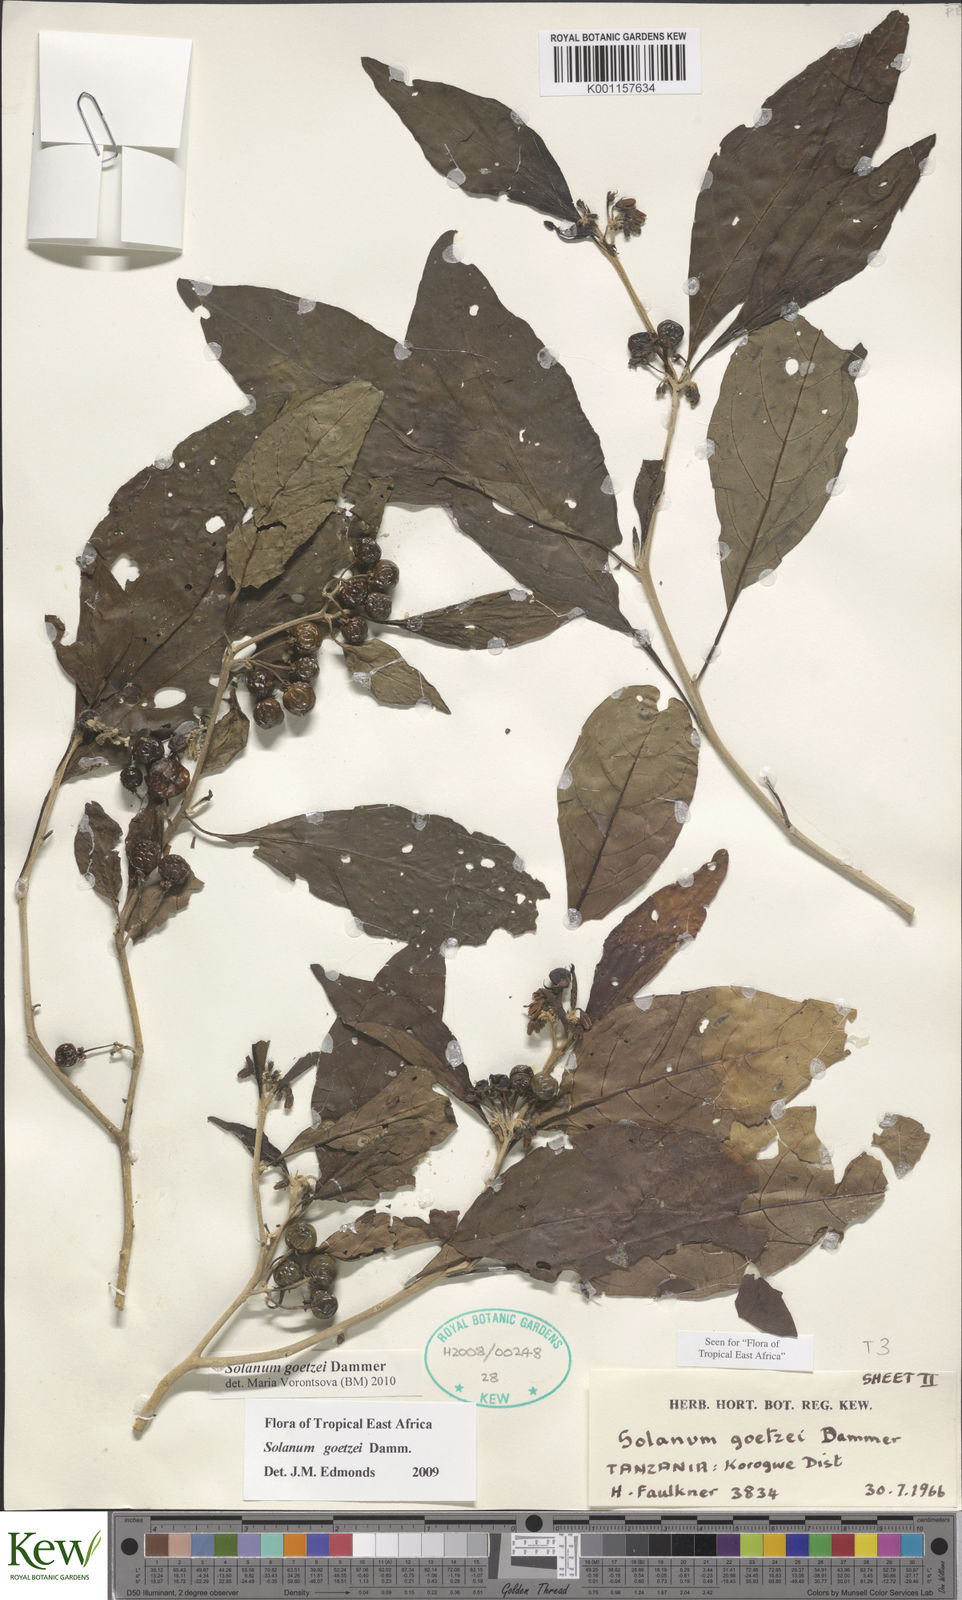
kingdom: Plantae
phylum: Tracheophyta
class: Magnoliopsida
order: Solanales
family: Solanaceae
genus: Solanum
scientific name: Solanum goetzei
